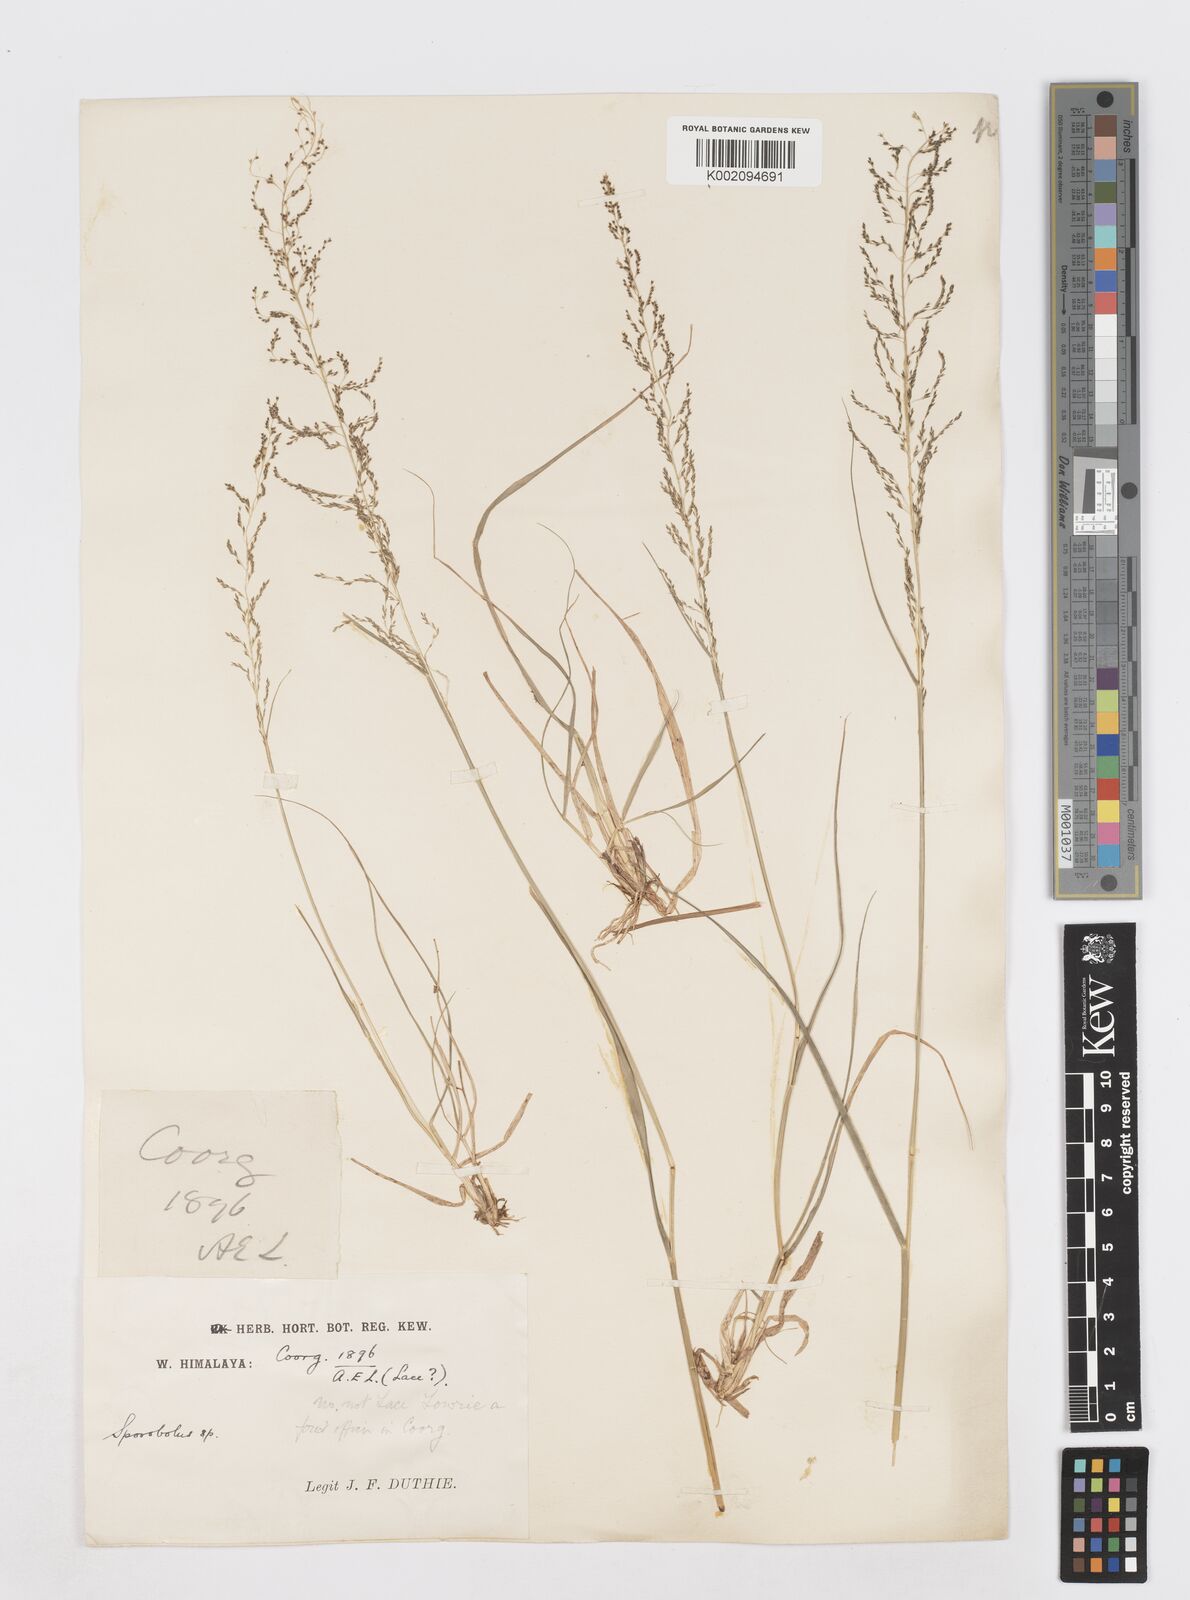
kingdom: Plantae
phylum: Tracheophyta
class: Liliopsida
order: Poales
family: Poaceae
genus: Sporobolus
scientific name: Sporobolus
